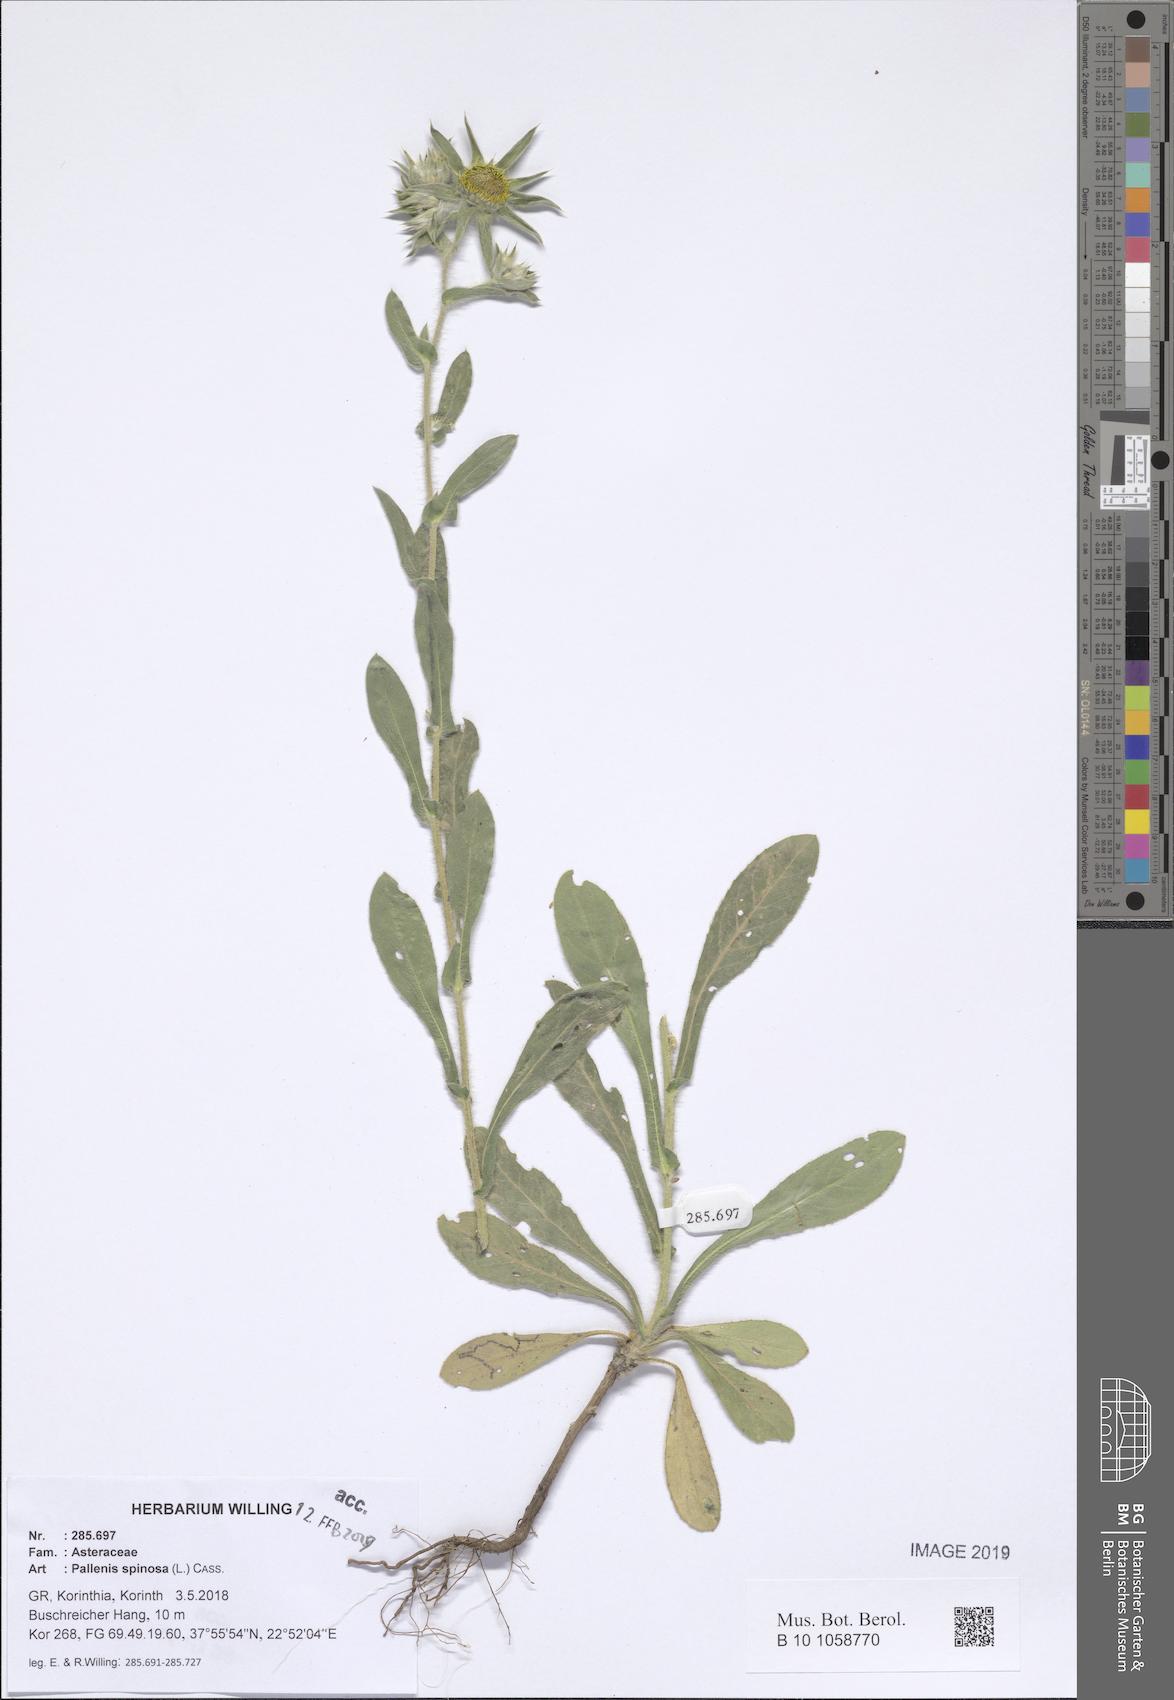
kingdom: Plantae
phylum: Tracheophyta
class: Magnoliopsida
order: Asterales
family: Asteraceae
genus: Pallenis
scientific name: Pallenis spinosa
